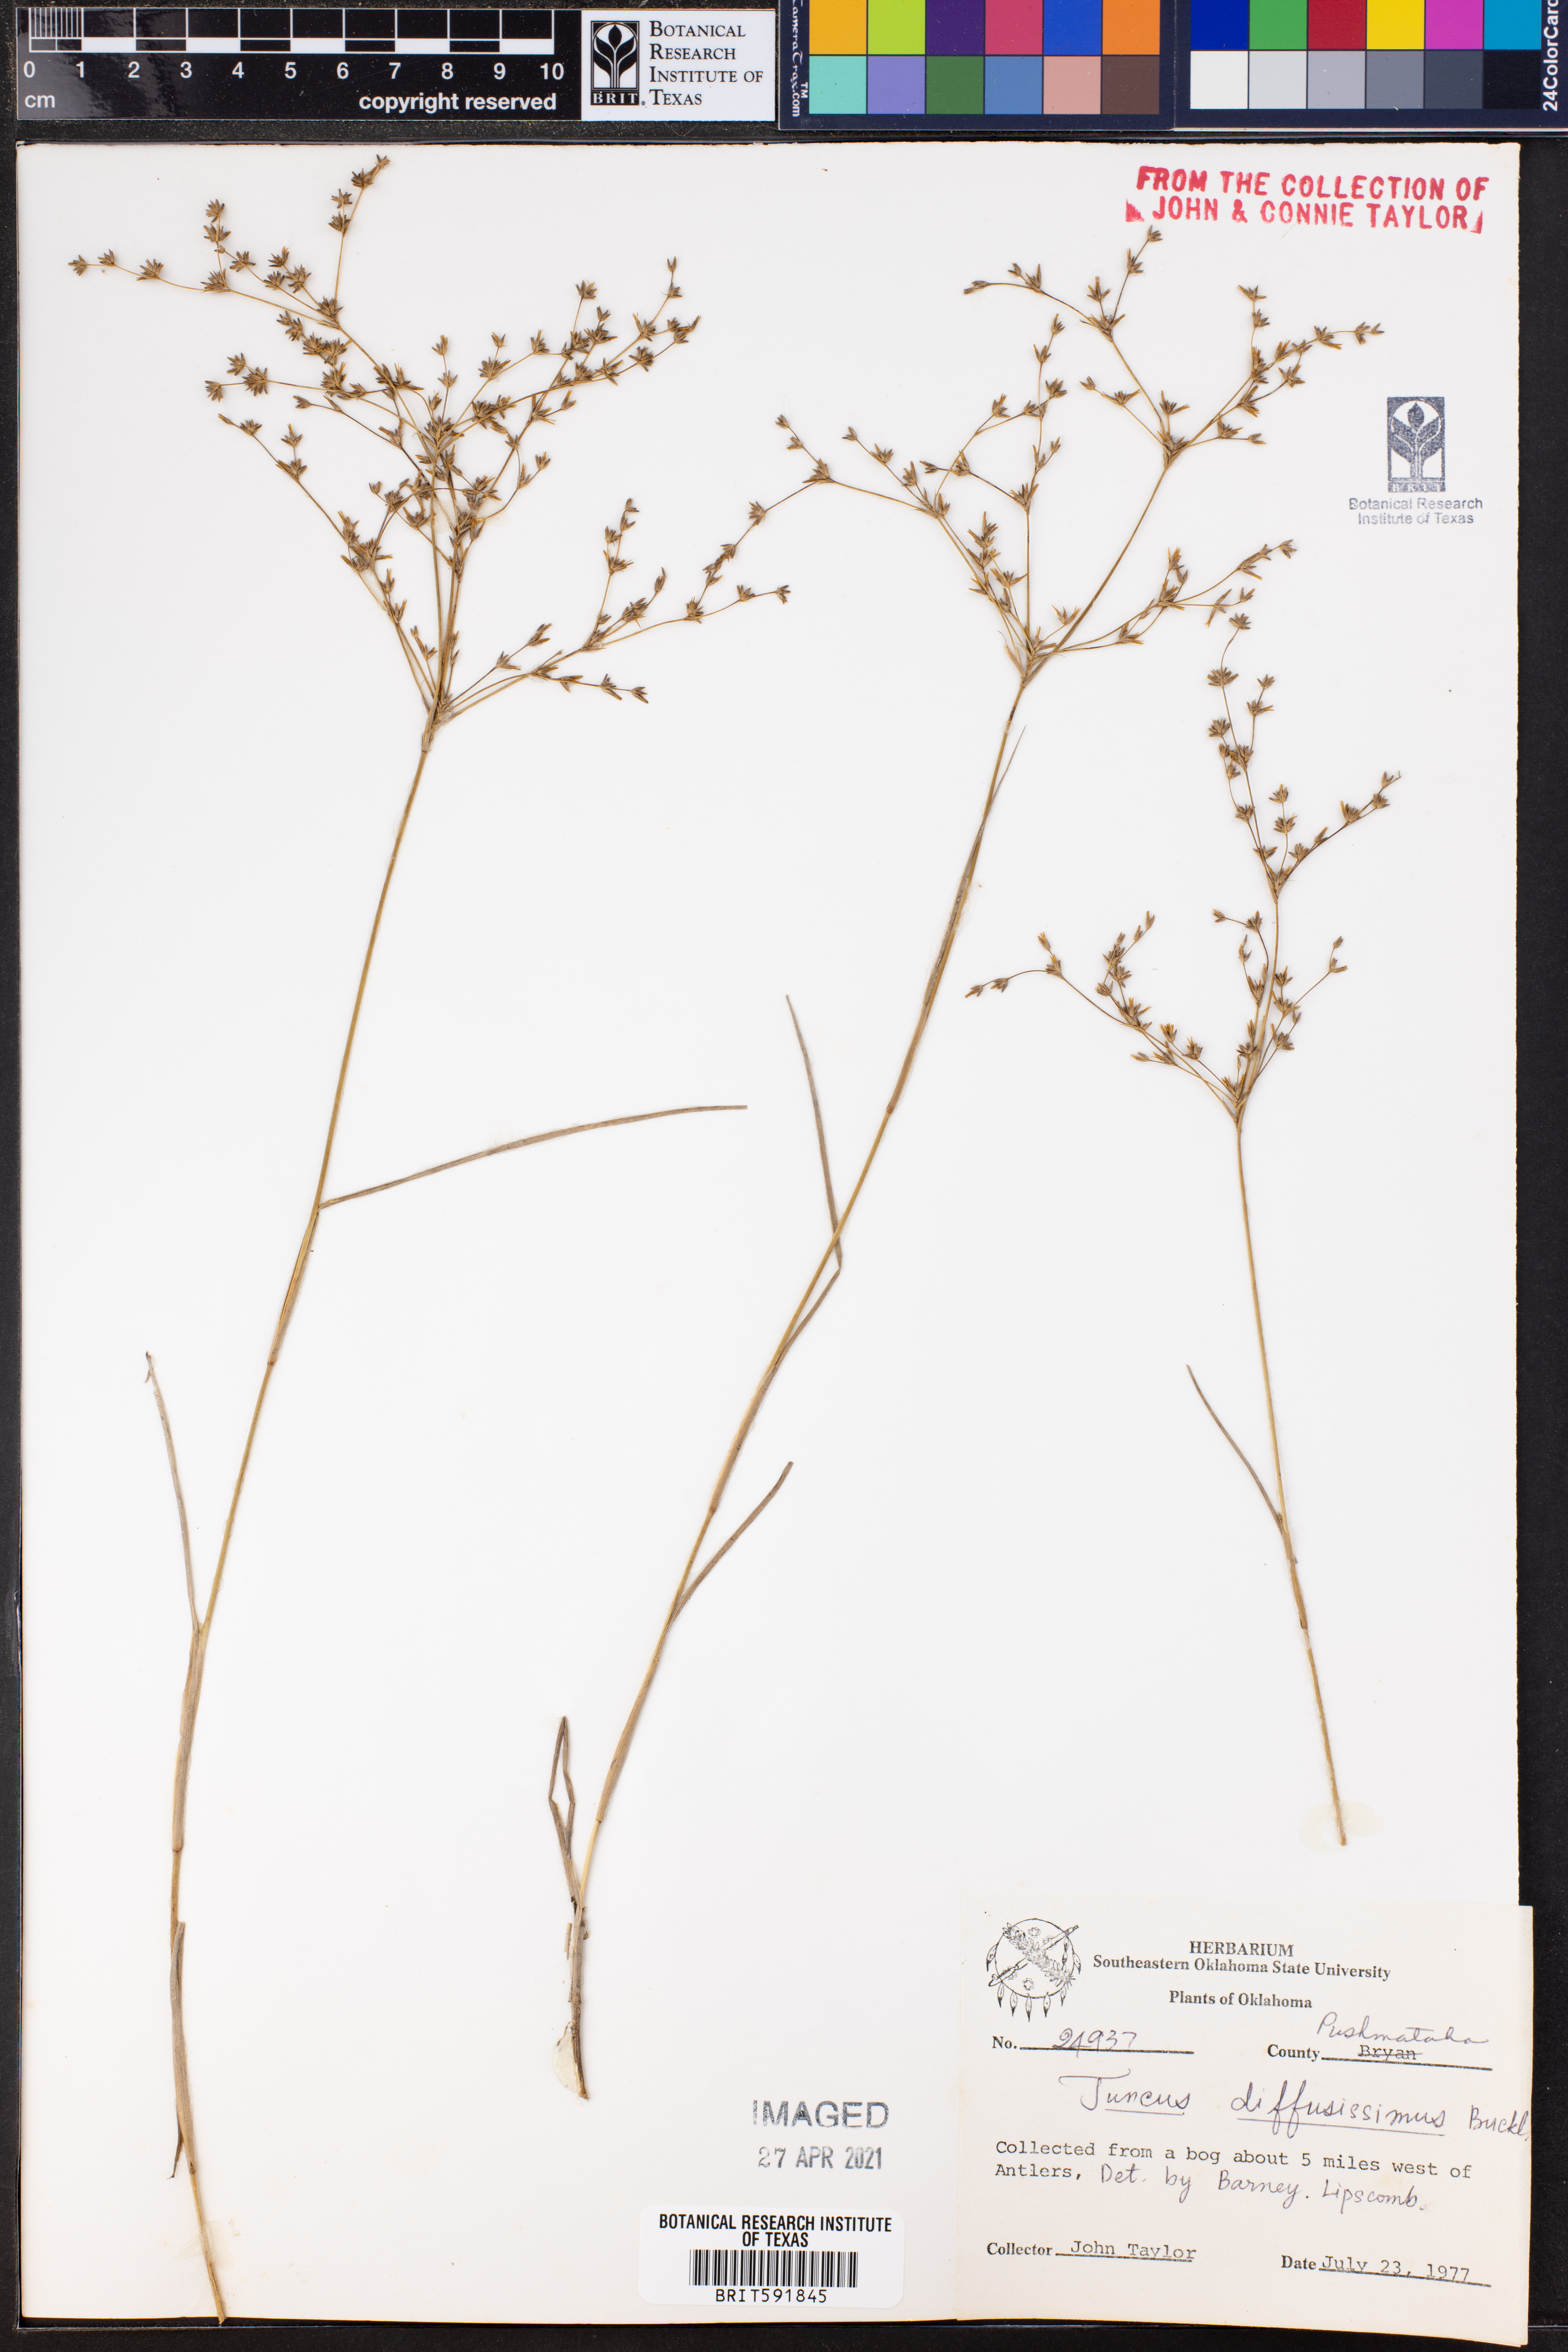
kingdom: Plantae
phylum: Tracheophyta
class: Liliopsida
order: Poales
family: Juncaceae
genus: Juncus
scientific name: Juncus diffusissimus
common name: Slimpod rush
